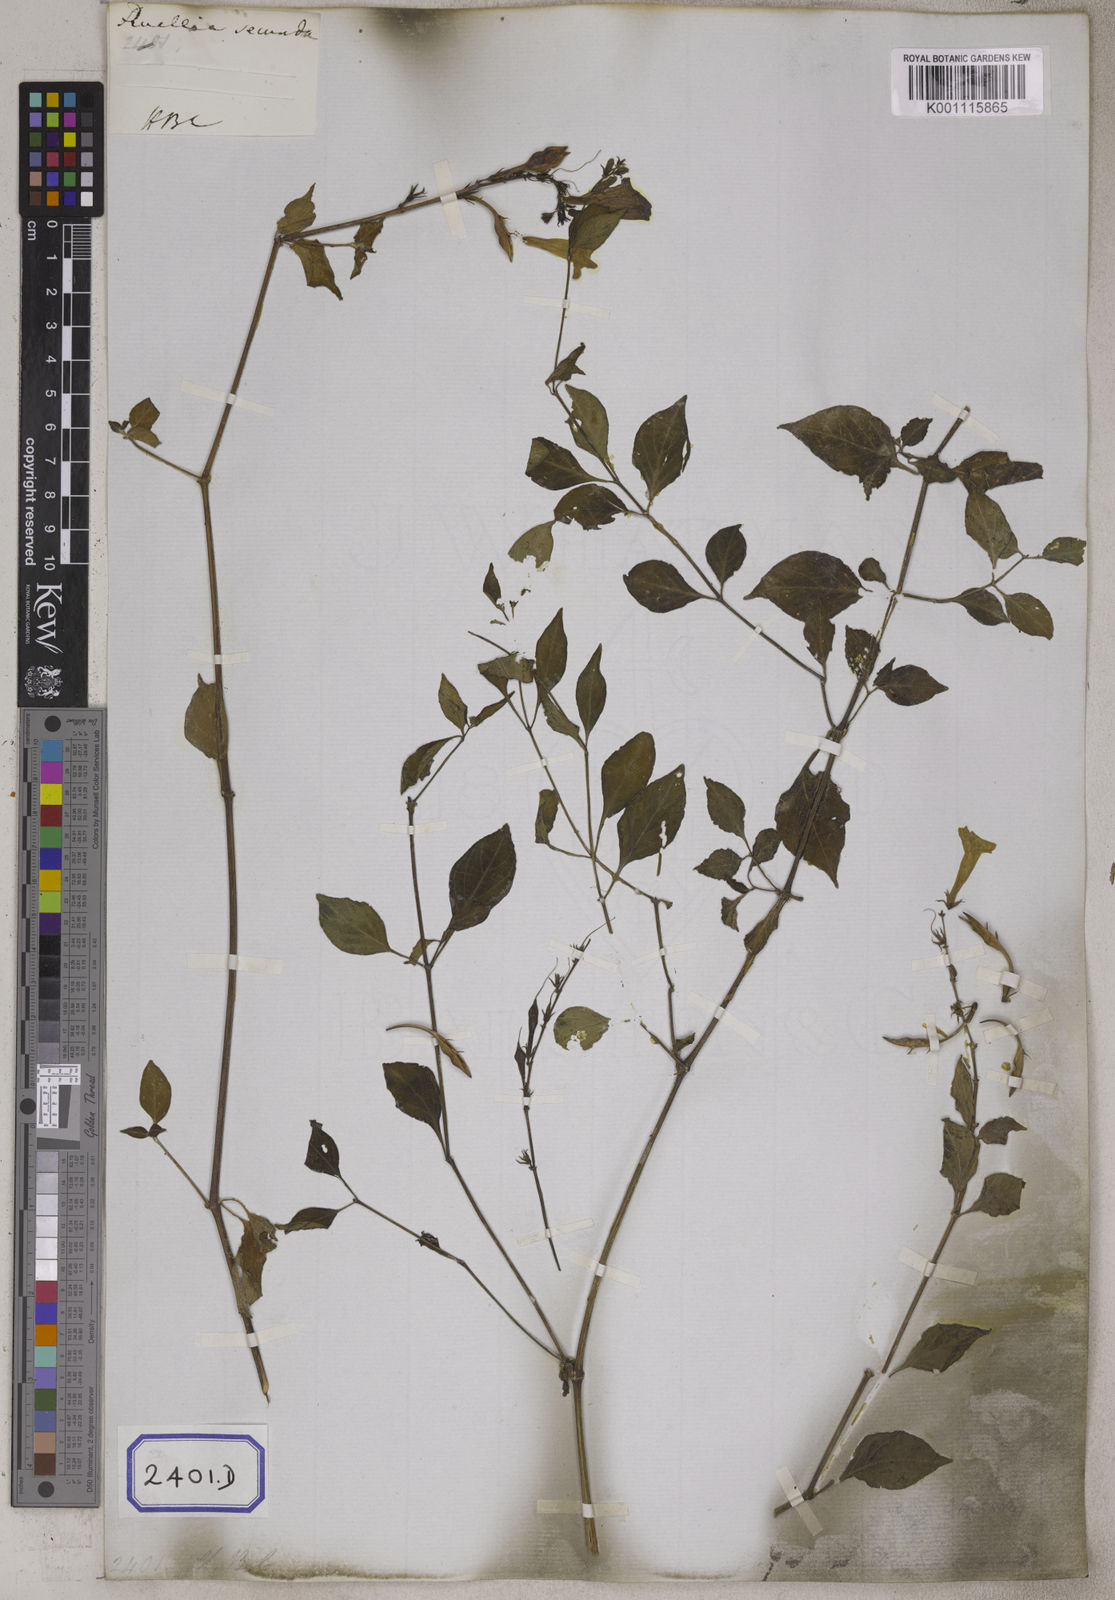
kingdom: Plantae
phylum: Tracheophyta
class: Magnoliopsida
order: Lamiales
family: Acanthaceae
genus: Asystasia
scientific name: Asystasia intrusa
